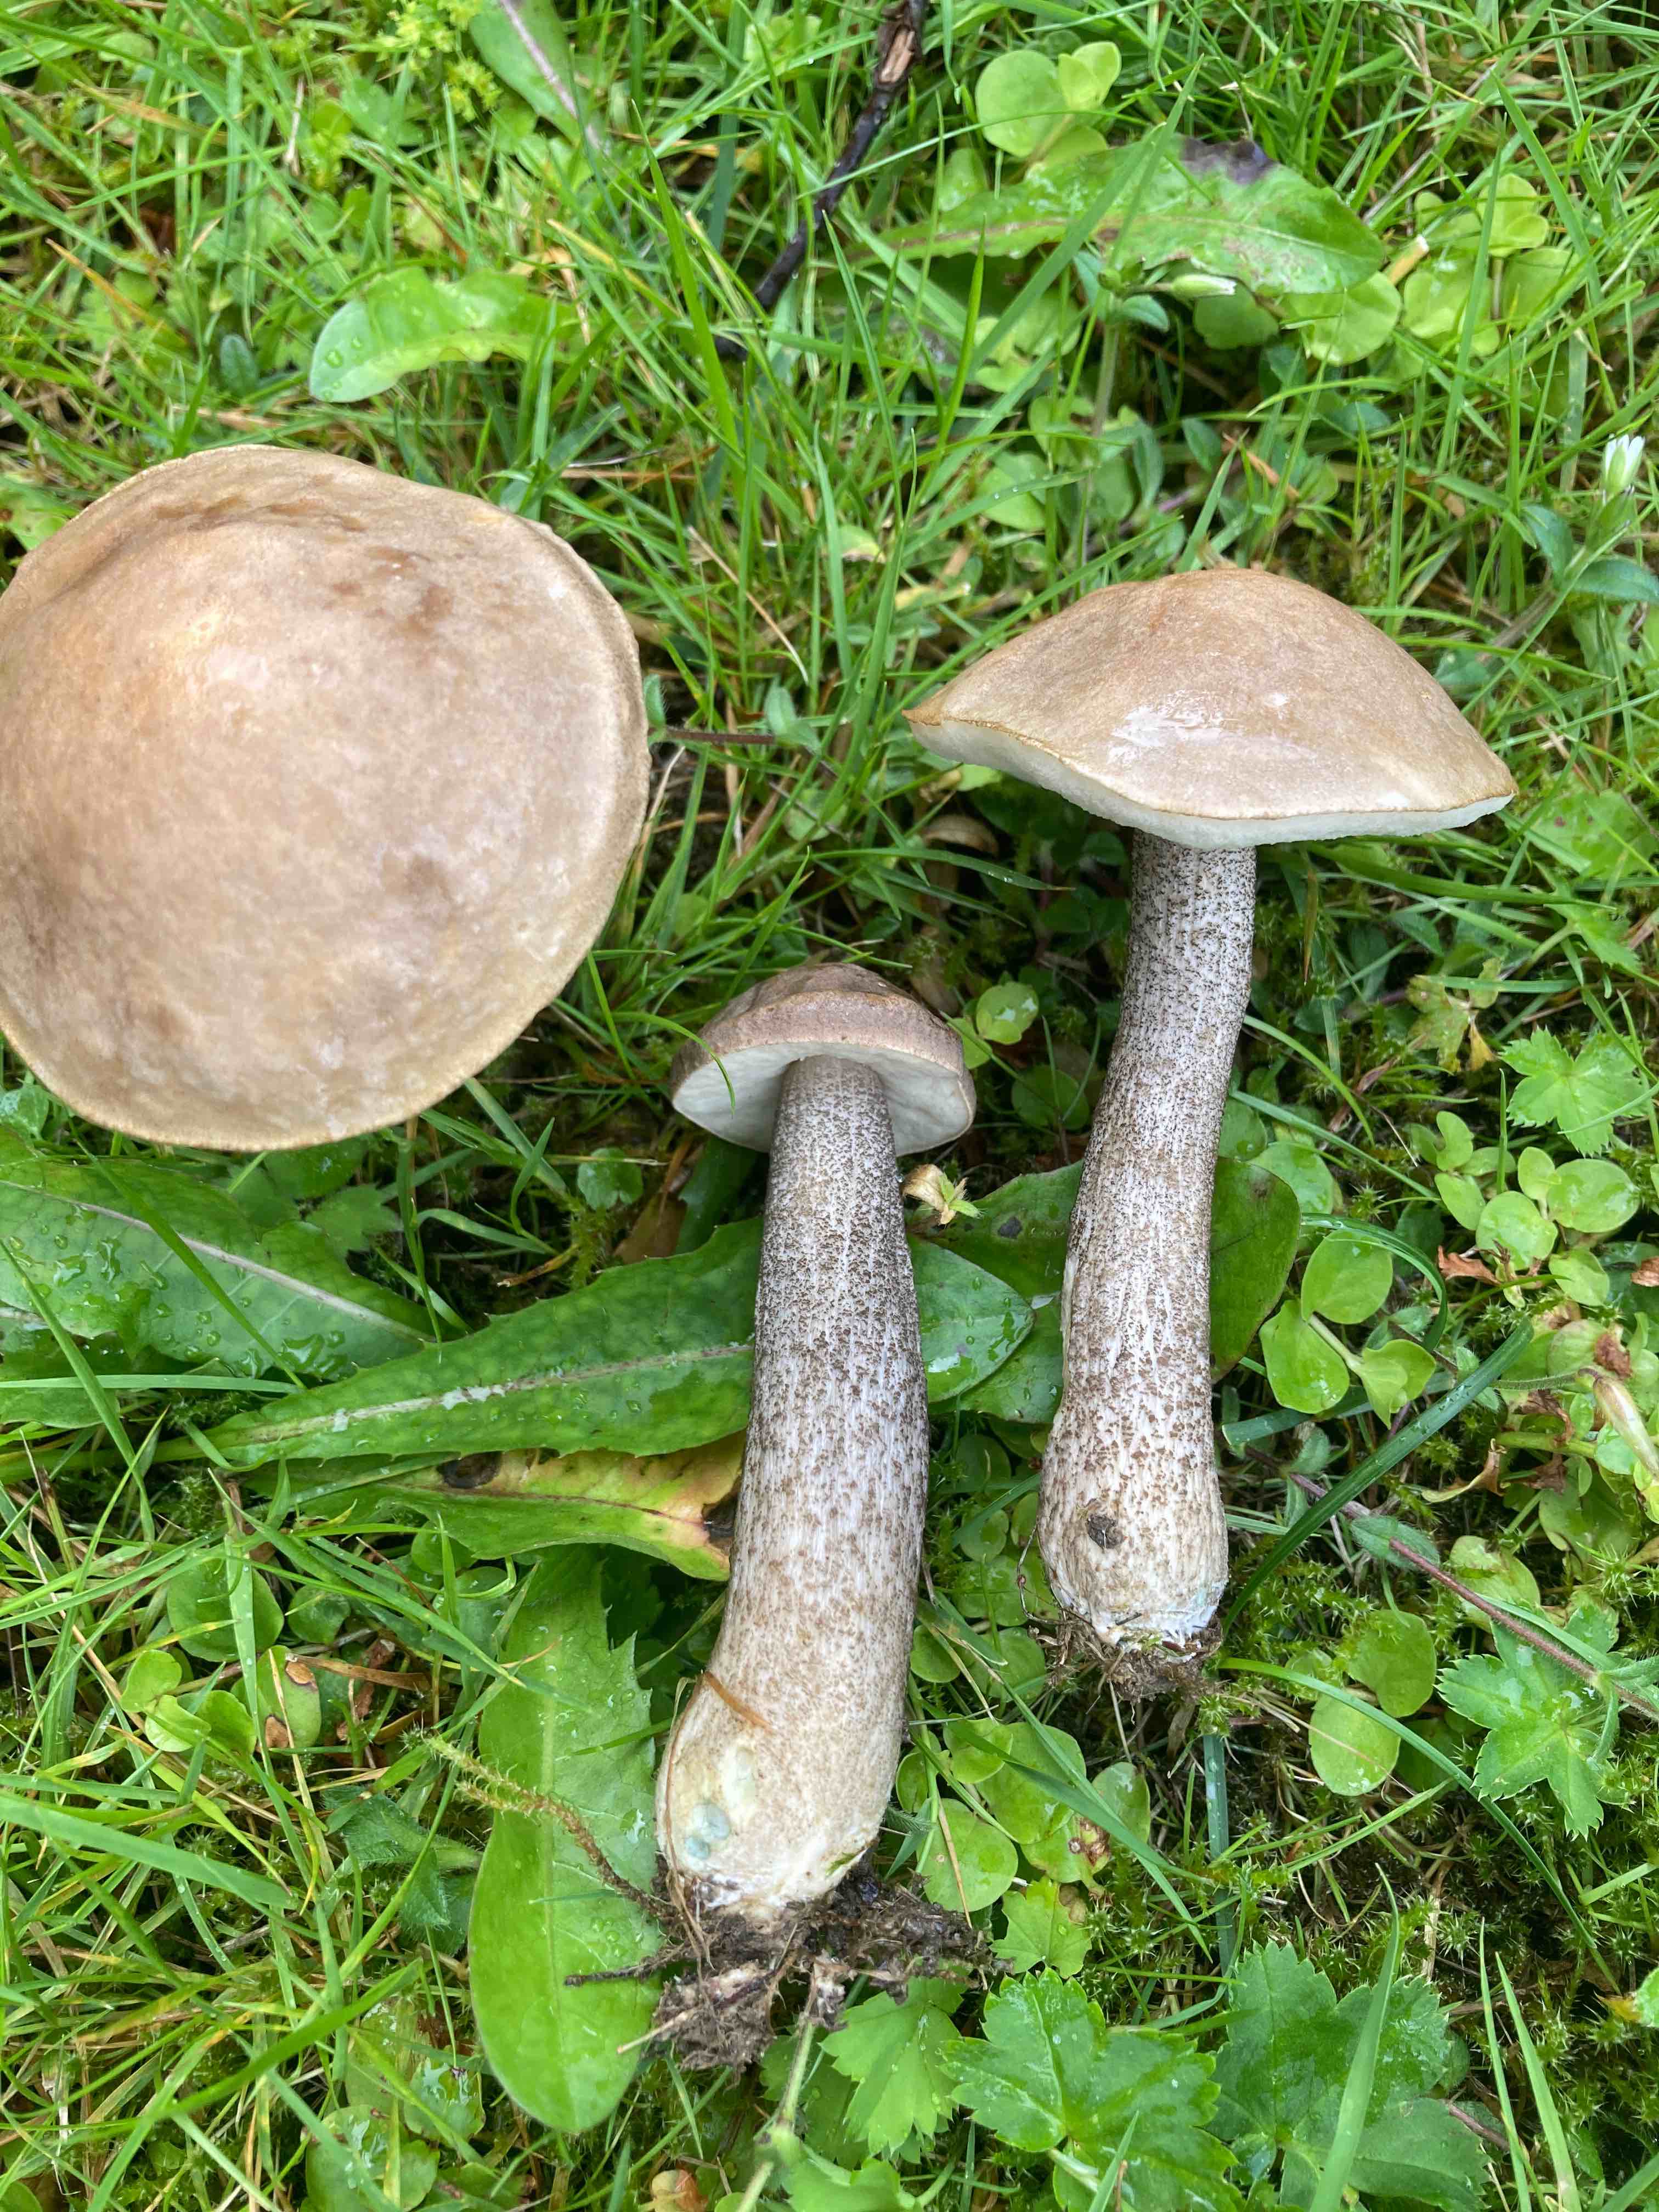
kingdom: Fungi
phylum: Basidiomycota
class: Agaricomycetes
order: Boletales
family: Boletaceae
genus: Leccinum
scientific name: Leccinum schistophilum
